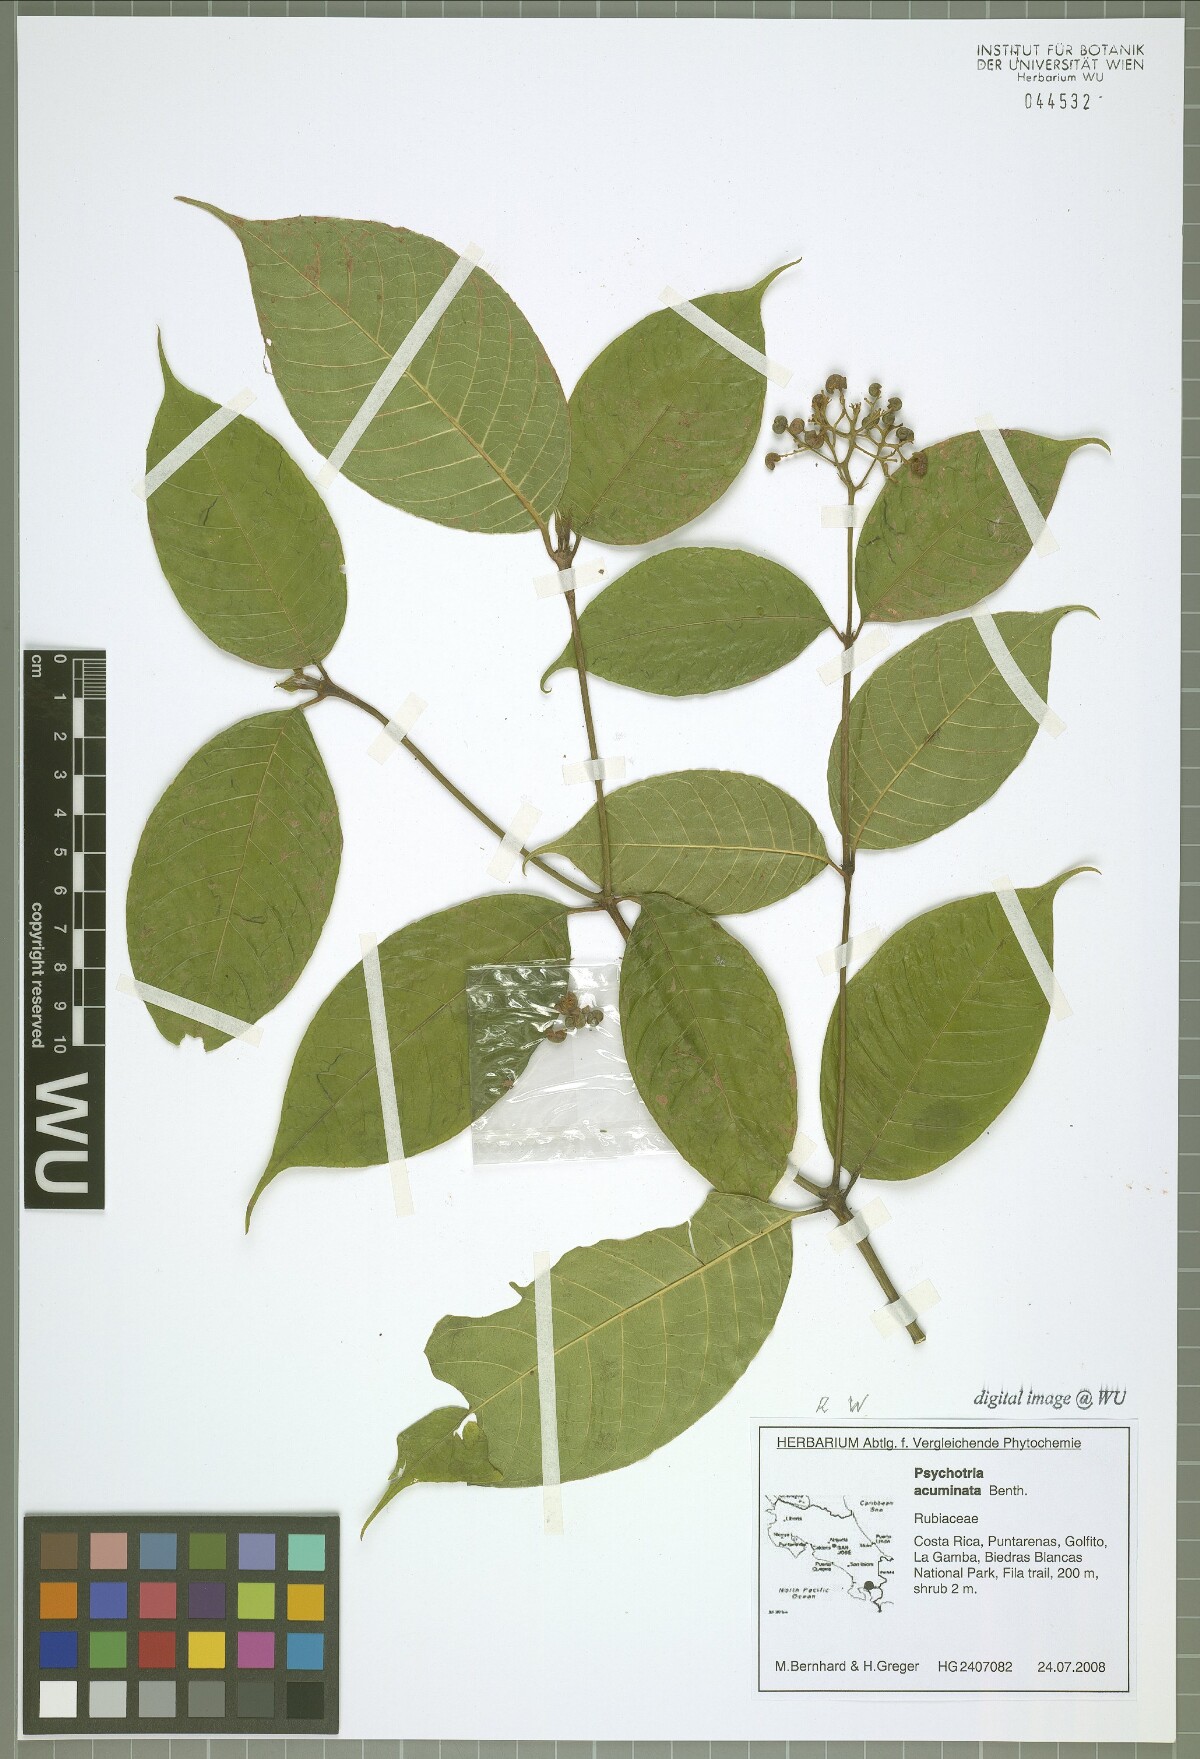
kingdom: Plantae
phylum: Tracheophyta
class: Magnoliopsida
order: Gentianales
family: Rubiaceae
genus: Palicourea
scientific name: Palicourea acuminata
